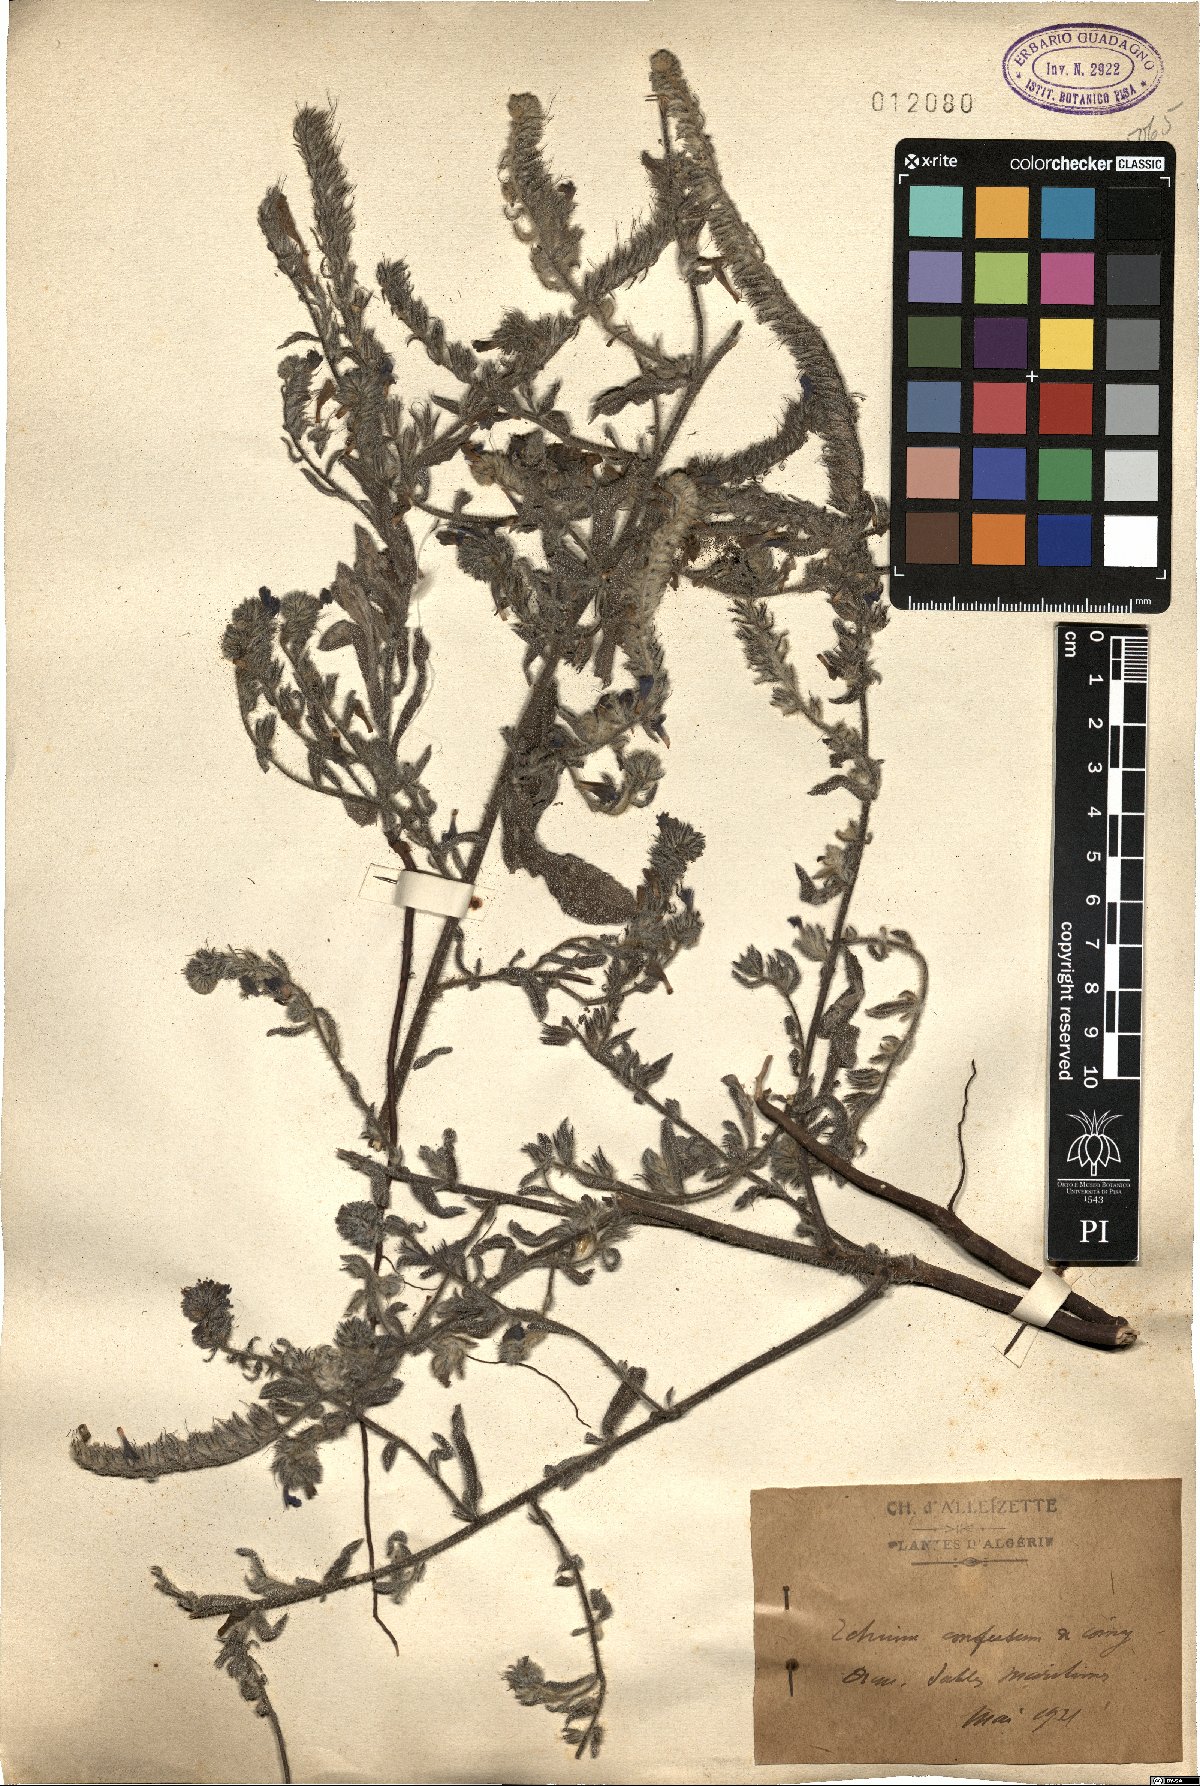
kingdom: Plantae
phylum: Tracheophyta
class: Magnoliopsida
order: Boraginales
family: Boraginaceae
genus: Echium
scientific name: Echium sabulicola
